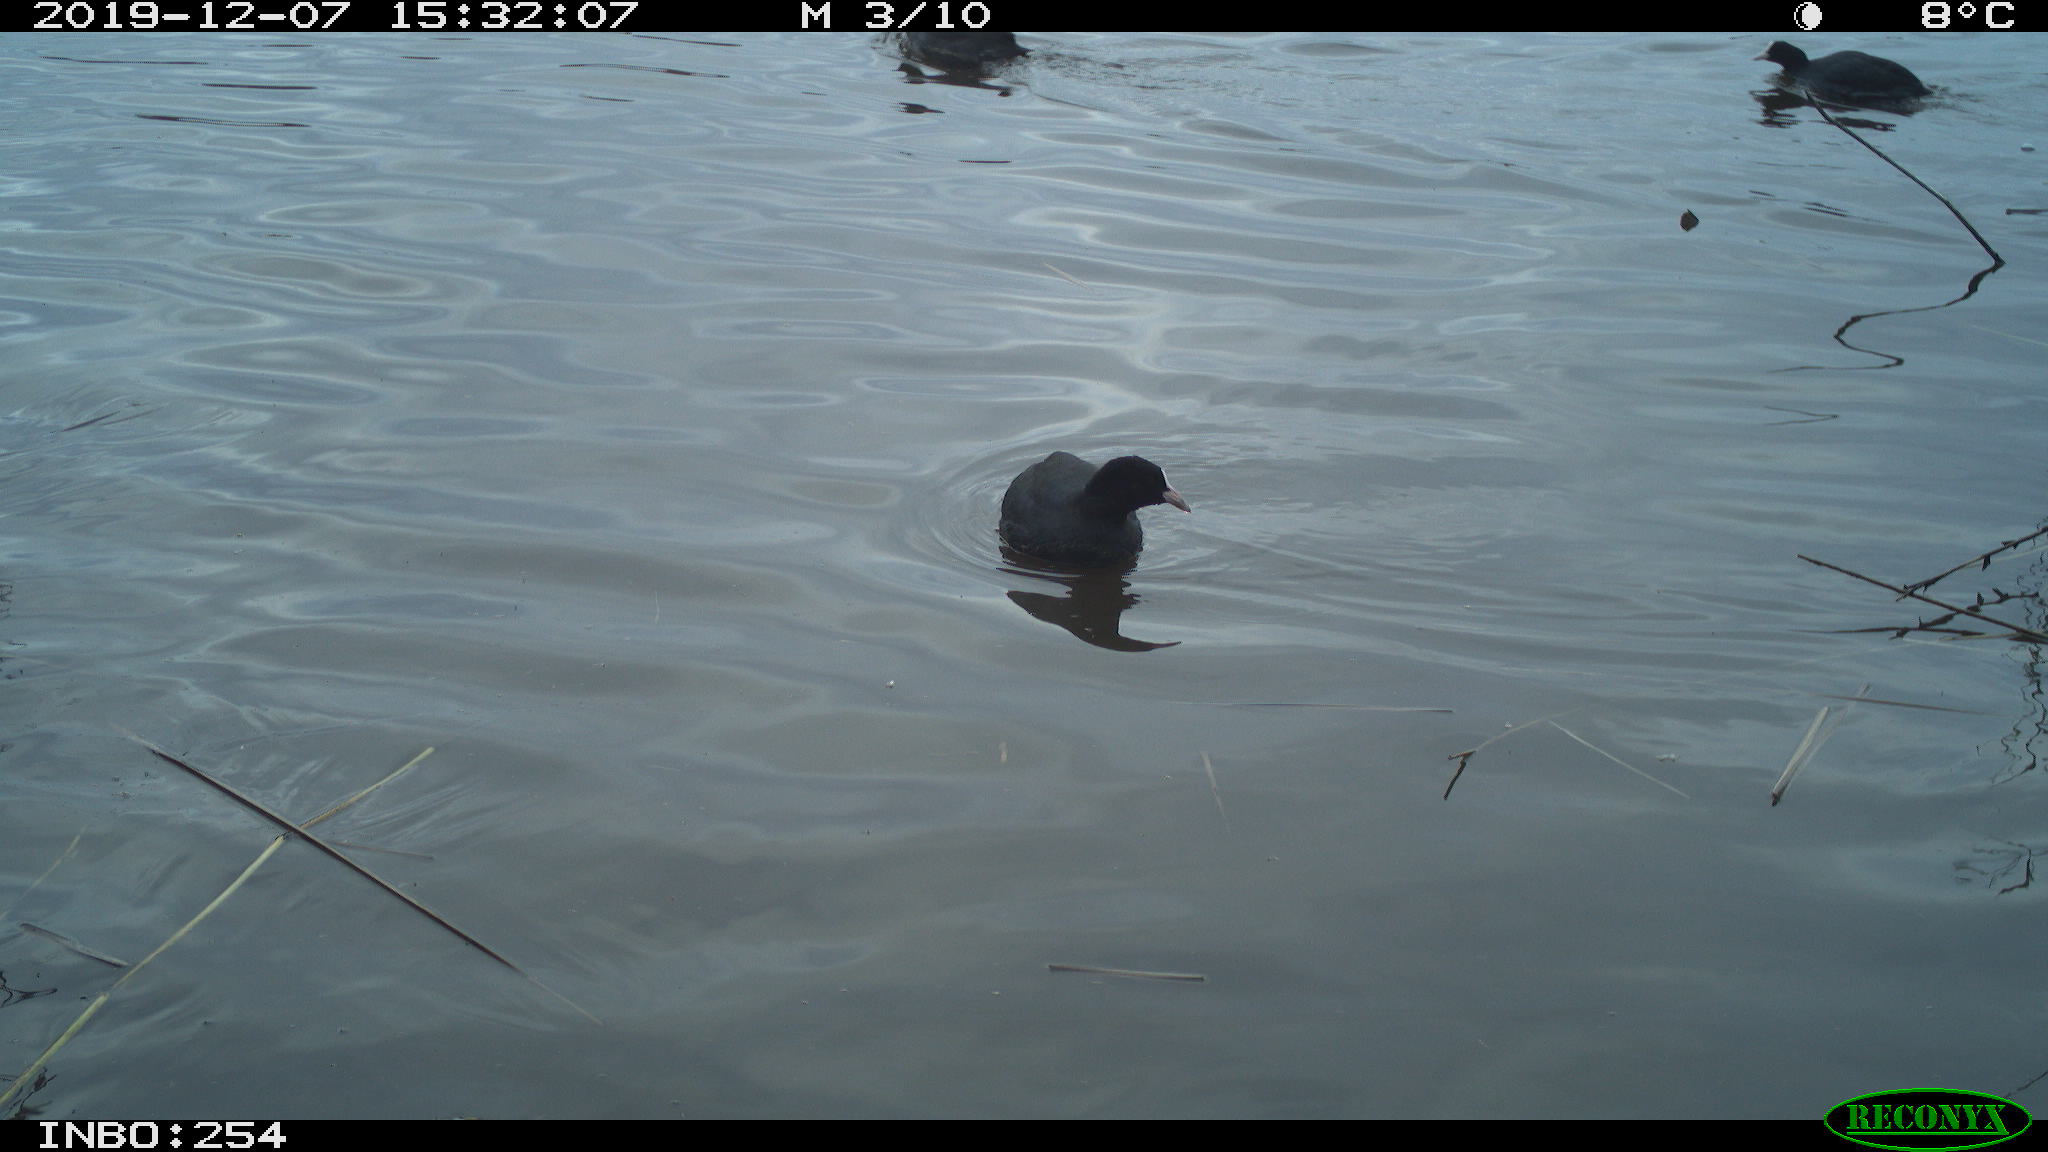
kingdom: Animalia
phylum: Chordata
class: Aves
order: Gruiformes
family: Rallidae
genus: Fulica
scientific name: Fulica atra
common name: Eurasian coot
